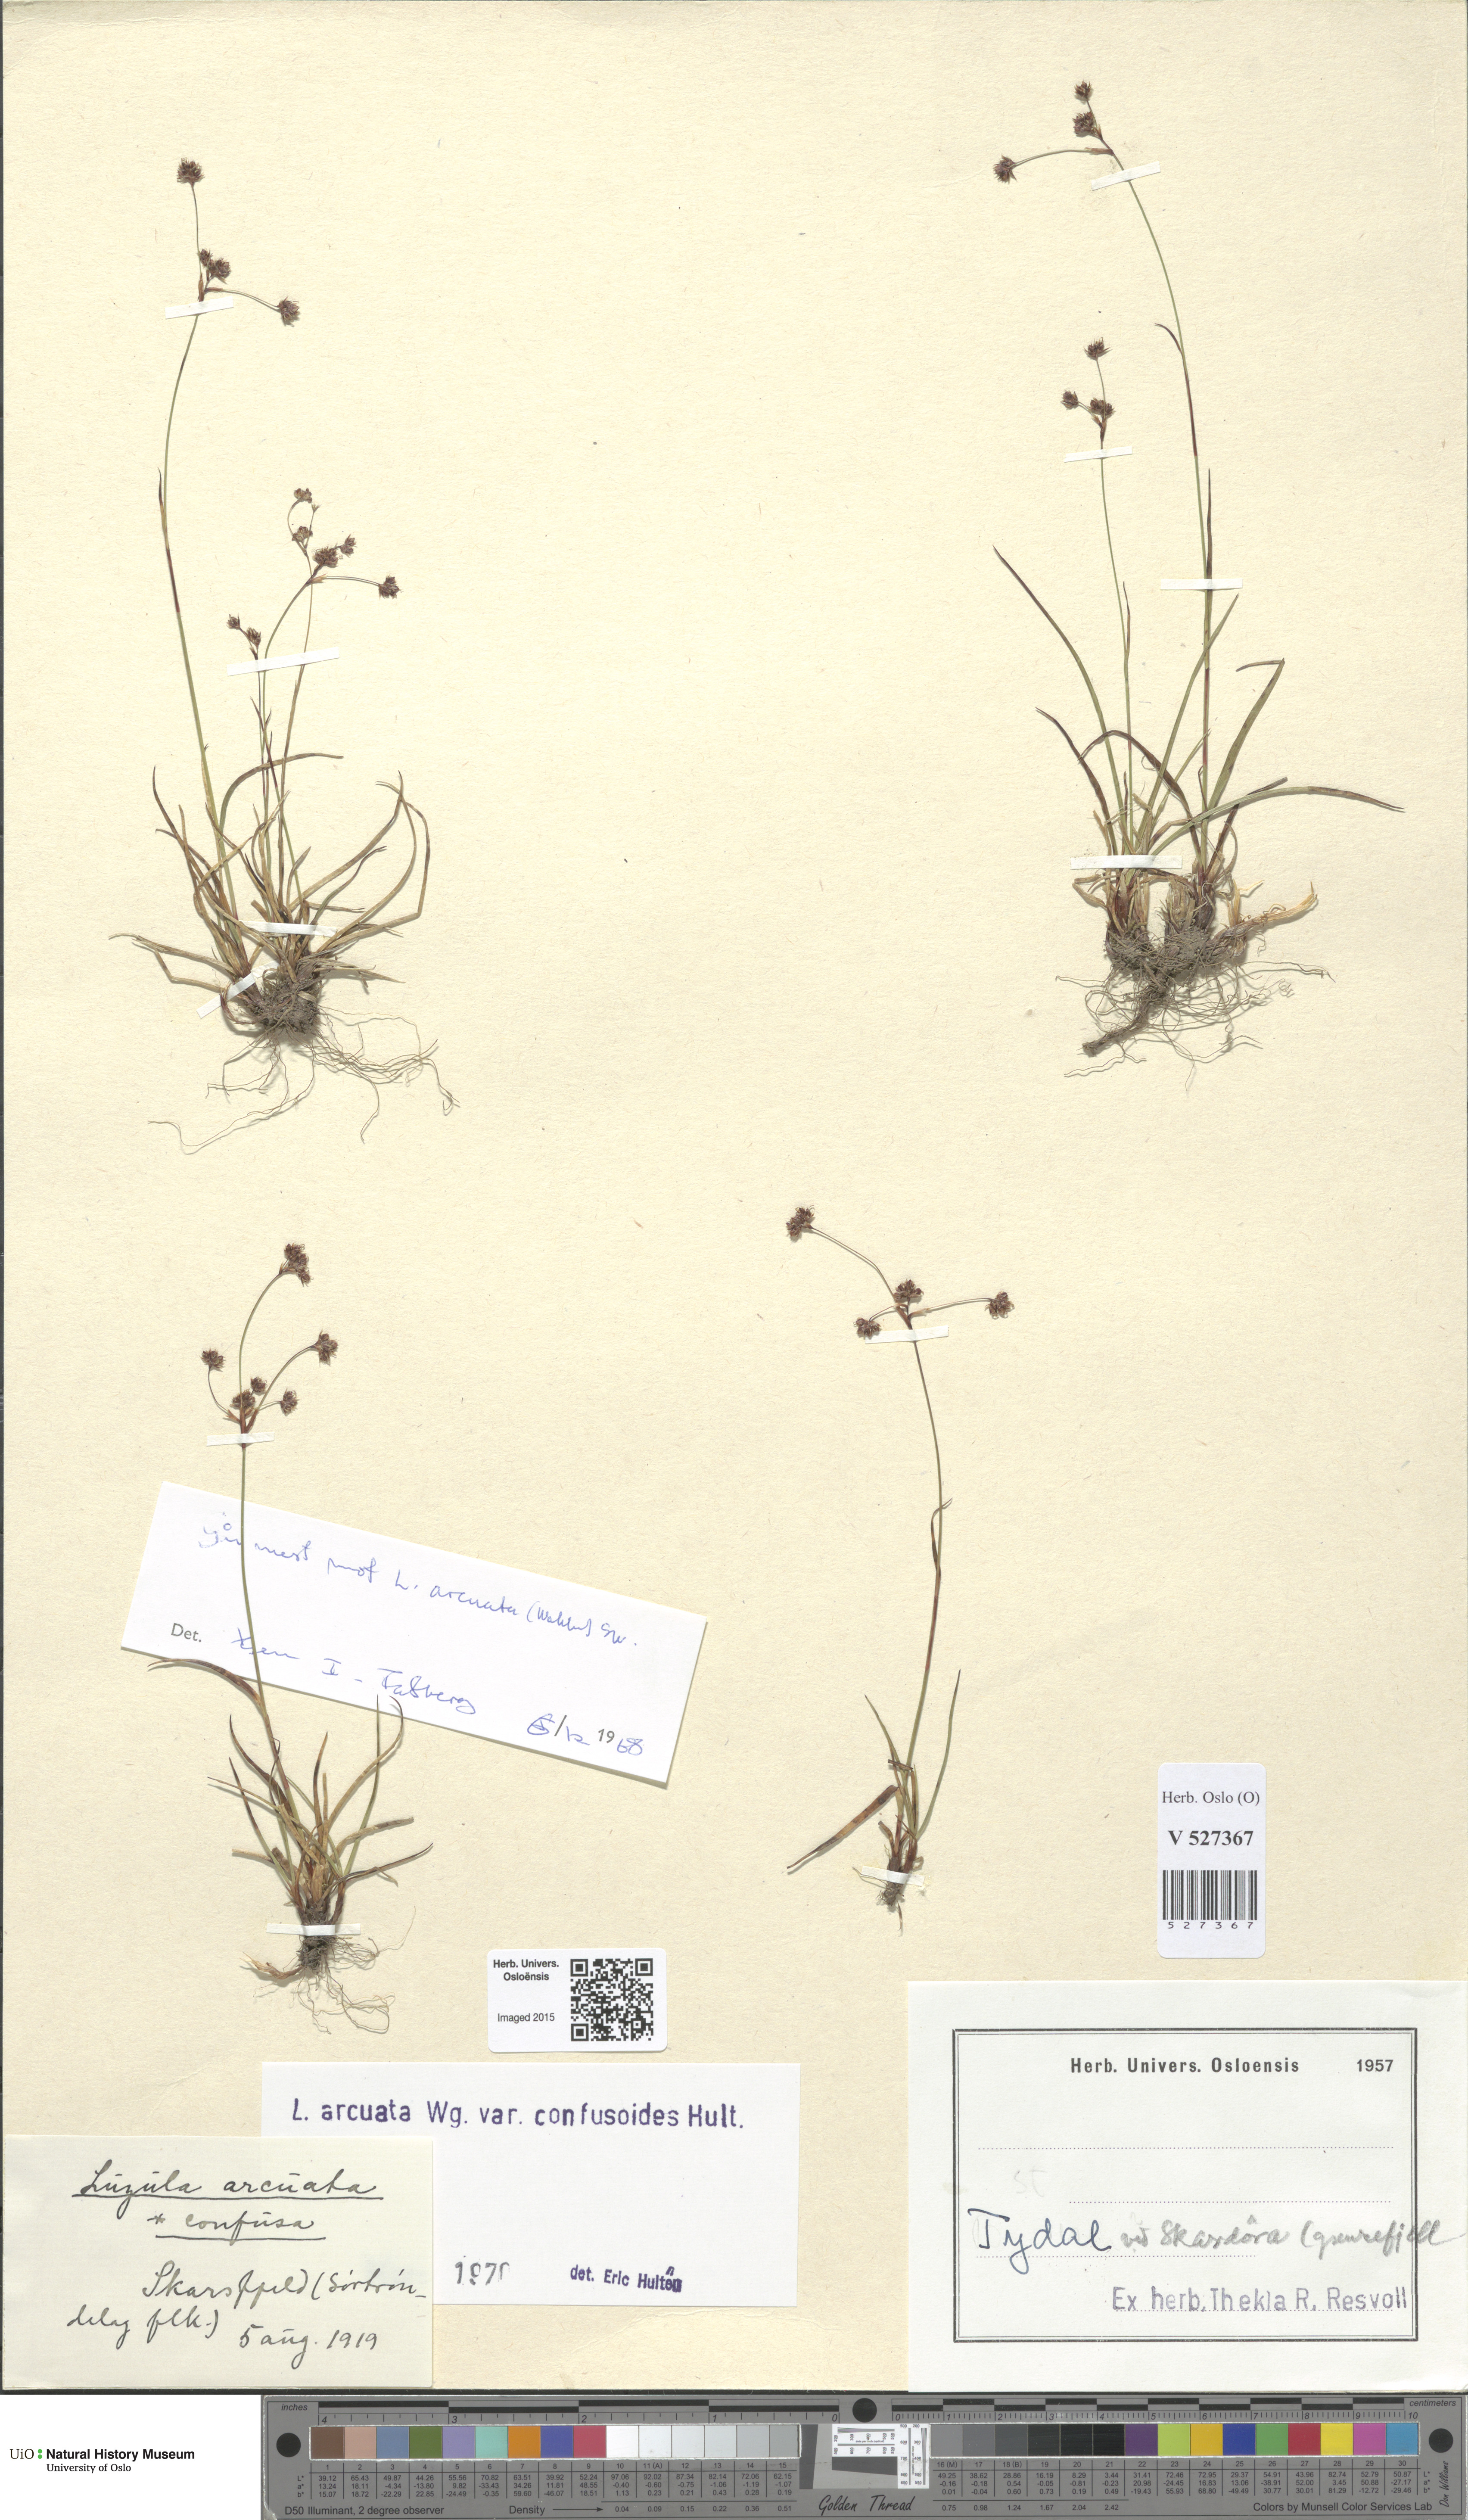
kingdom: Plantae
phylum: Tracheophyta
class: Liliopsida
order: Poales
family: Juncaceae
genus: Luzula
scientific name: Luzula arcuata
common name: Curved wood-rush
